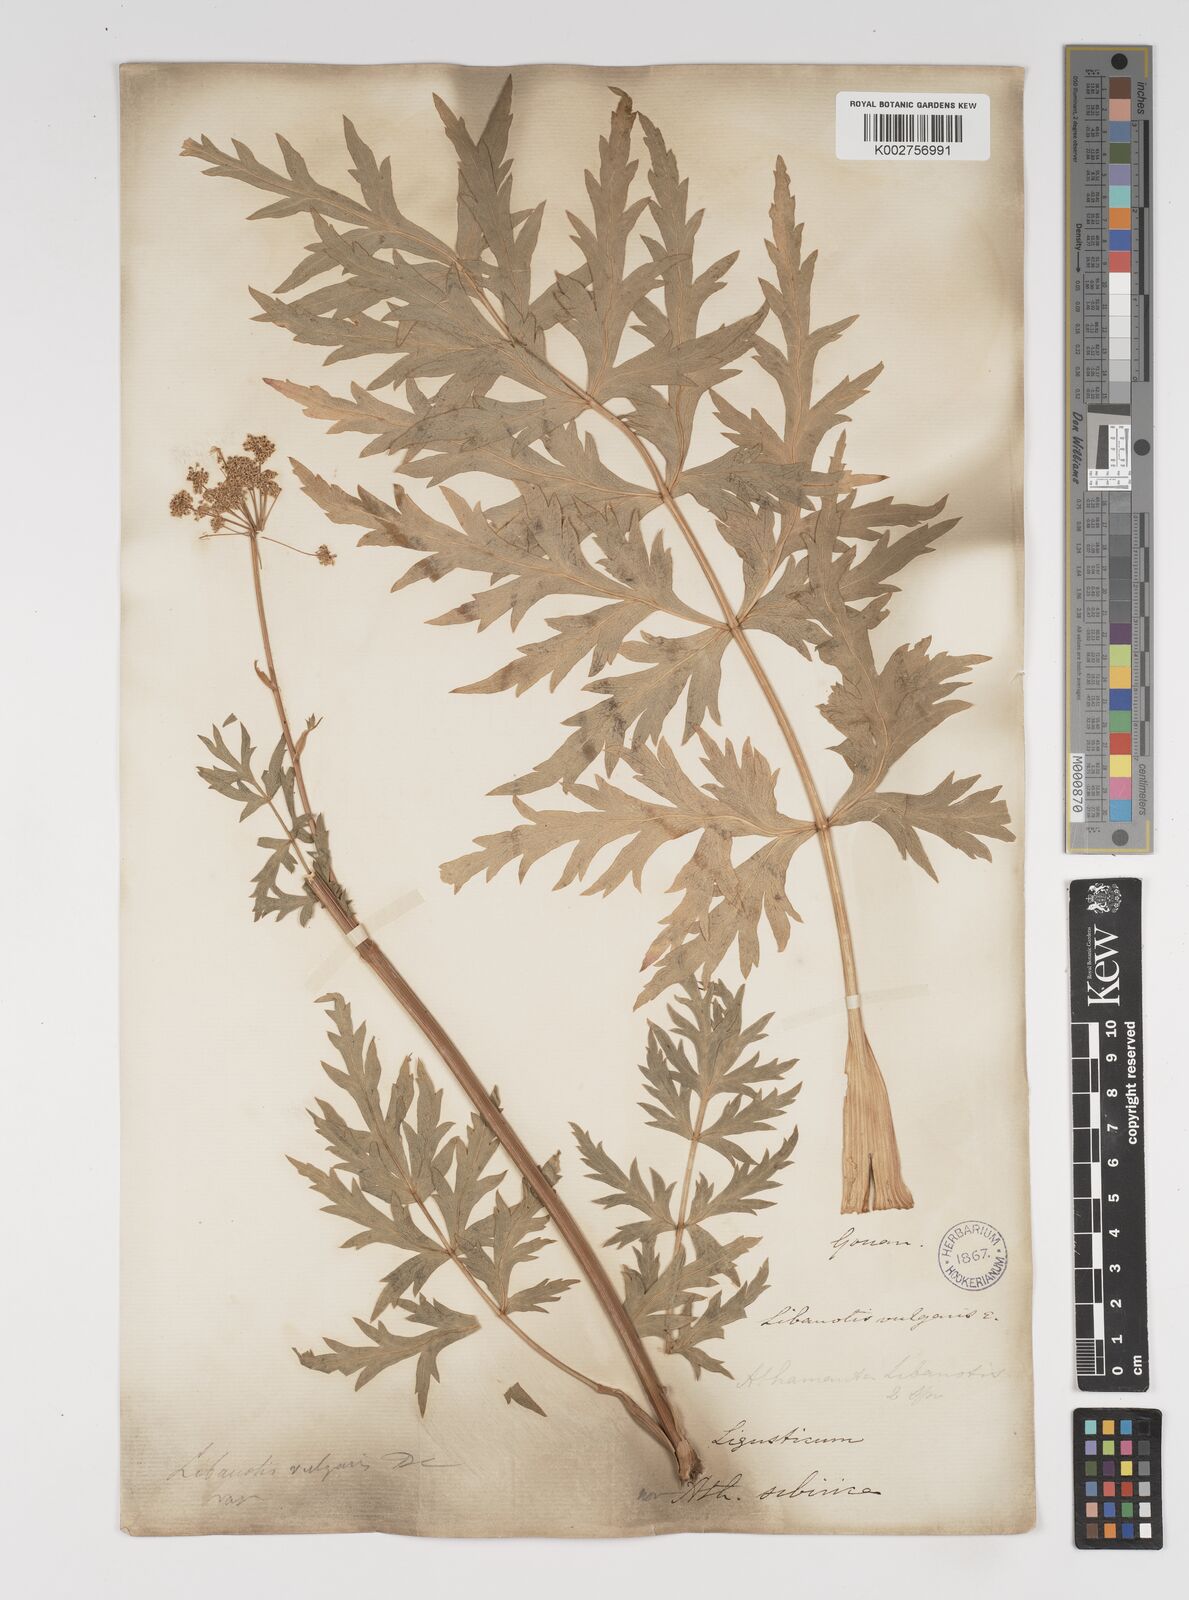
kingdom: Plantae
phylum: Tracheophyta
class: Magnoliopsida
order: Apiales
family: Apiaceae
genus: Seseli
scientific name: Seseli libanotis
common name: Mooncarrot
